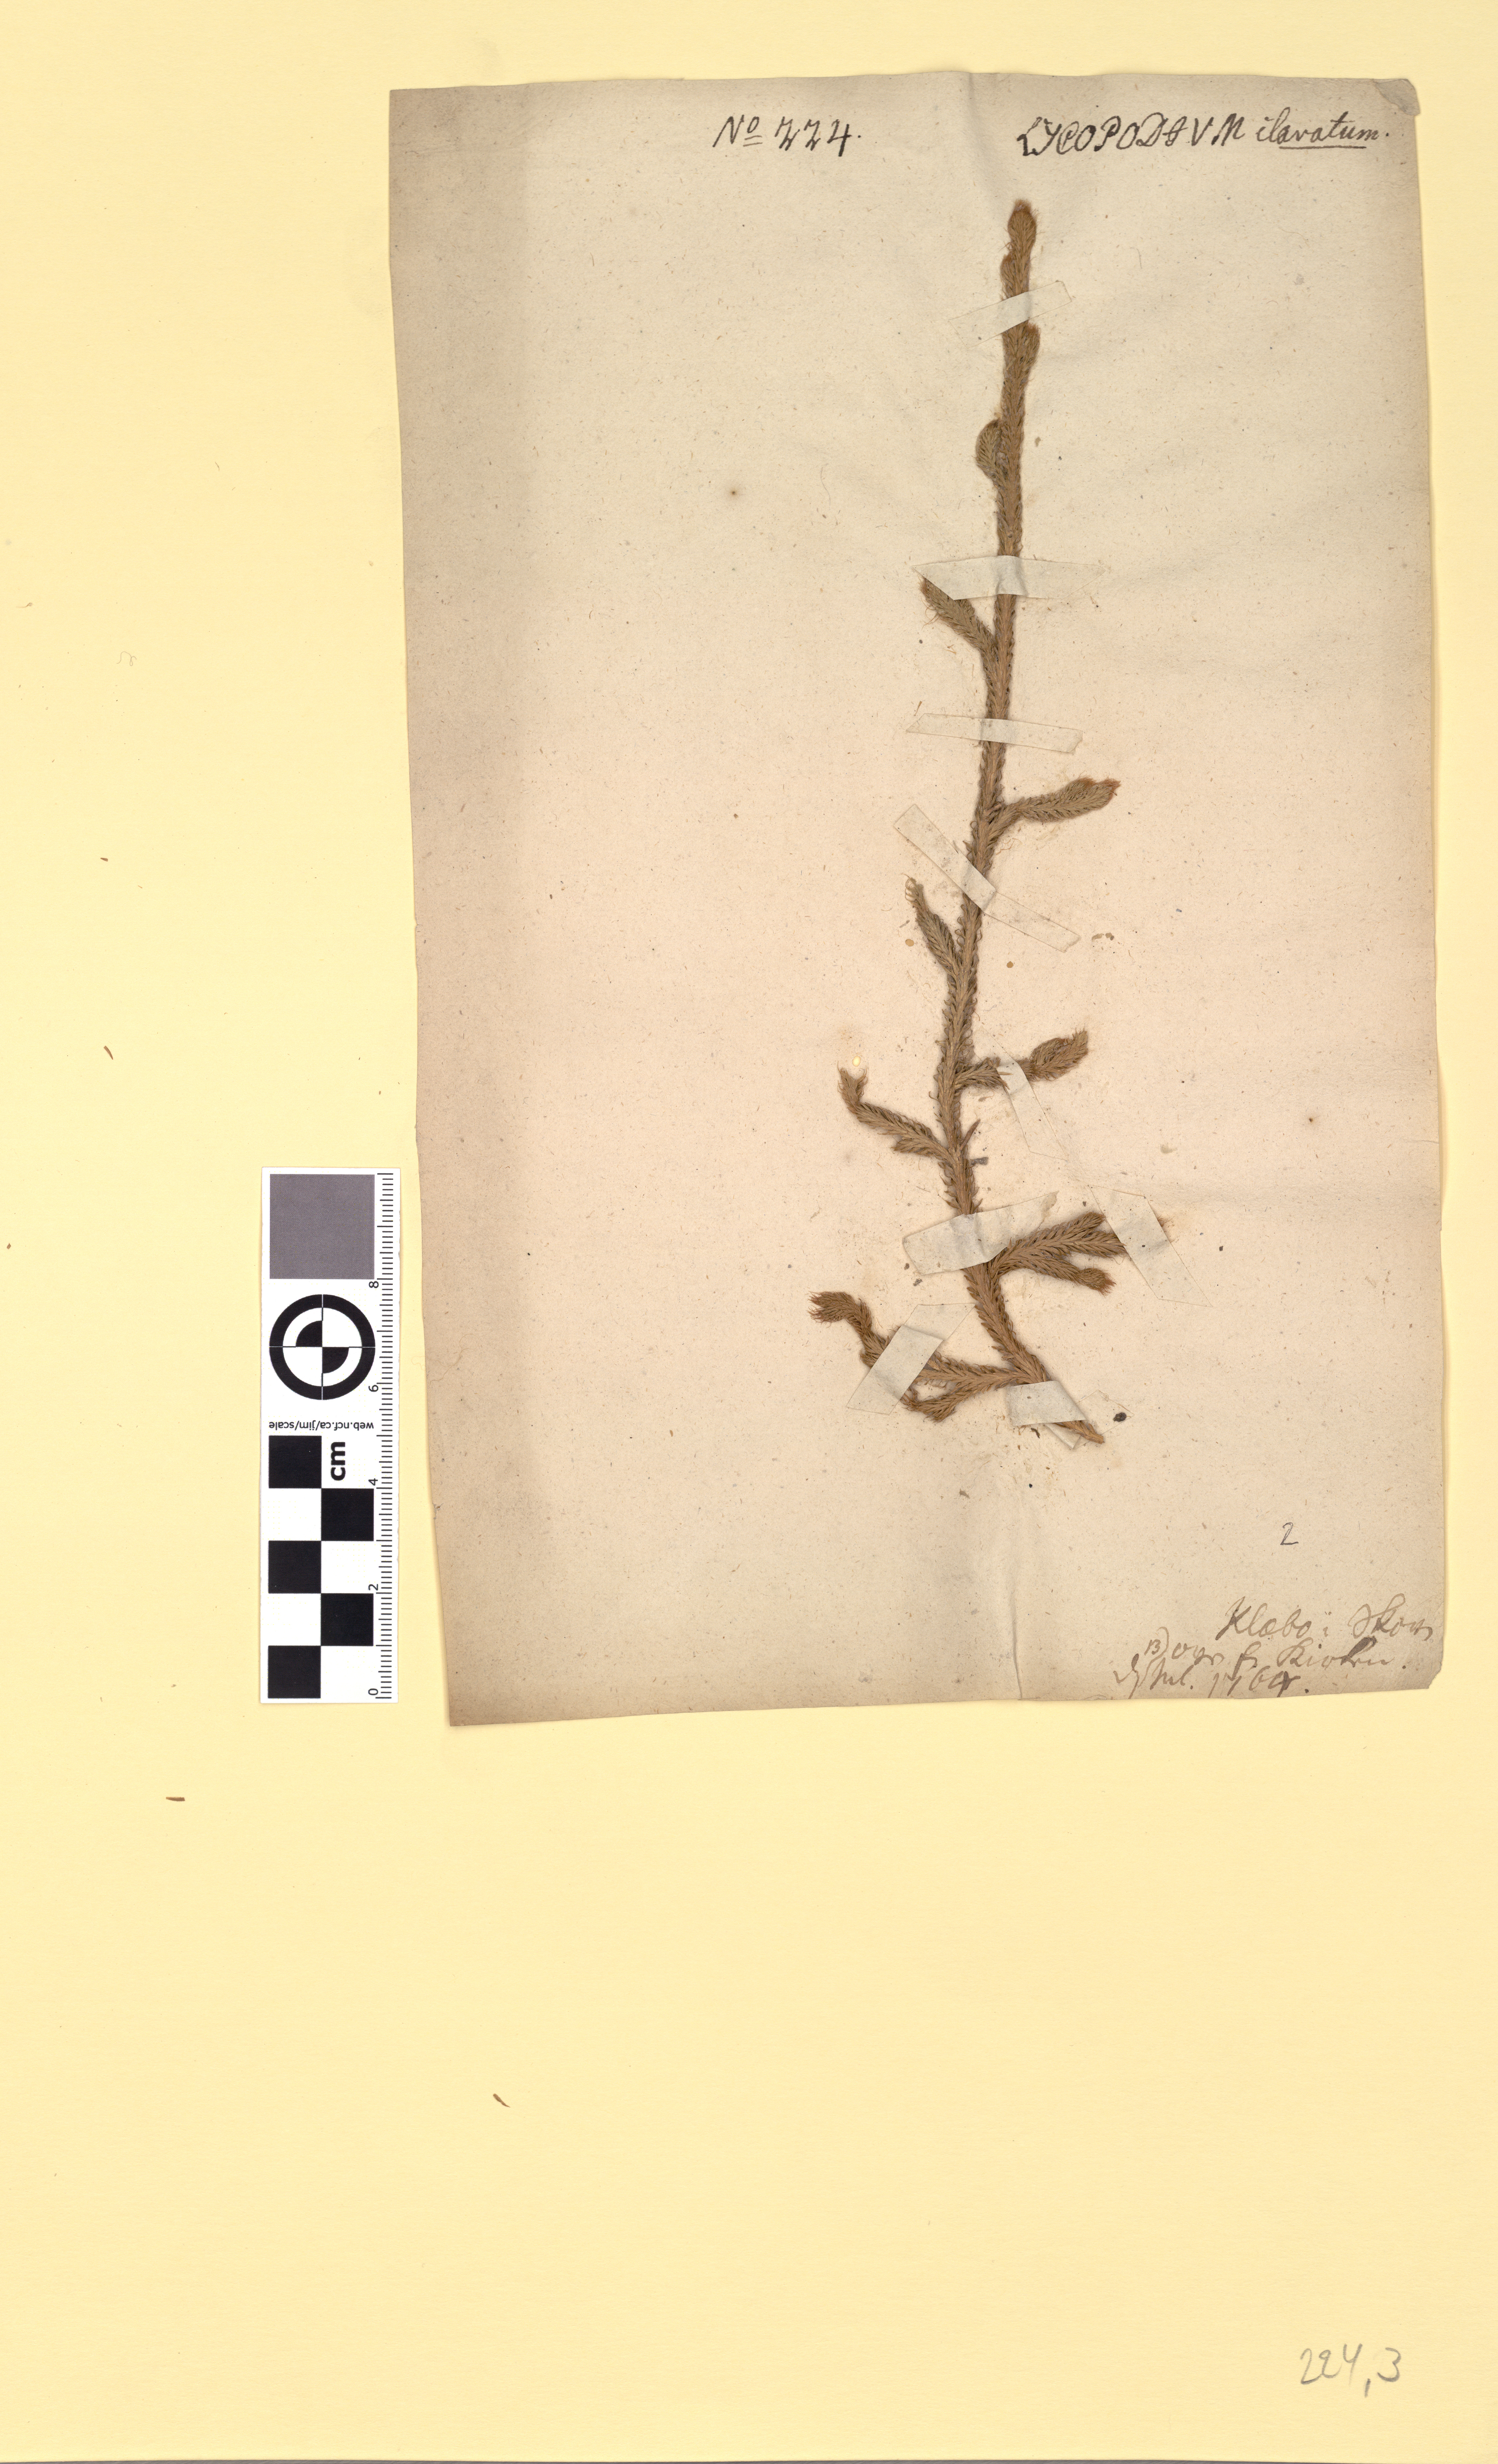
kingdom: Plantae
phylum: Tracheophyta
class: Lycopodiopsida
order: Lycopodiales
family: Lycopodiaceae
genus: Lycopodium
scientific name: Lycopodium clavatum
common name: Stag's-horn clubmoss
